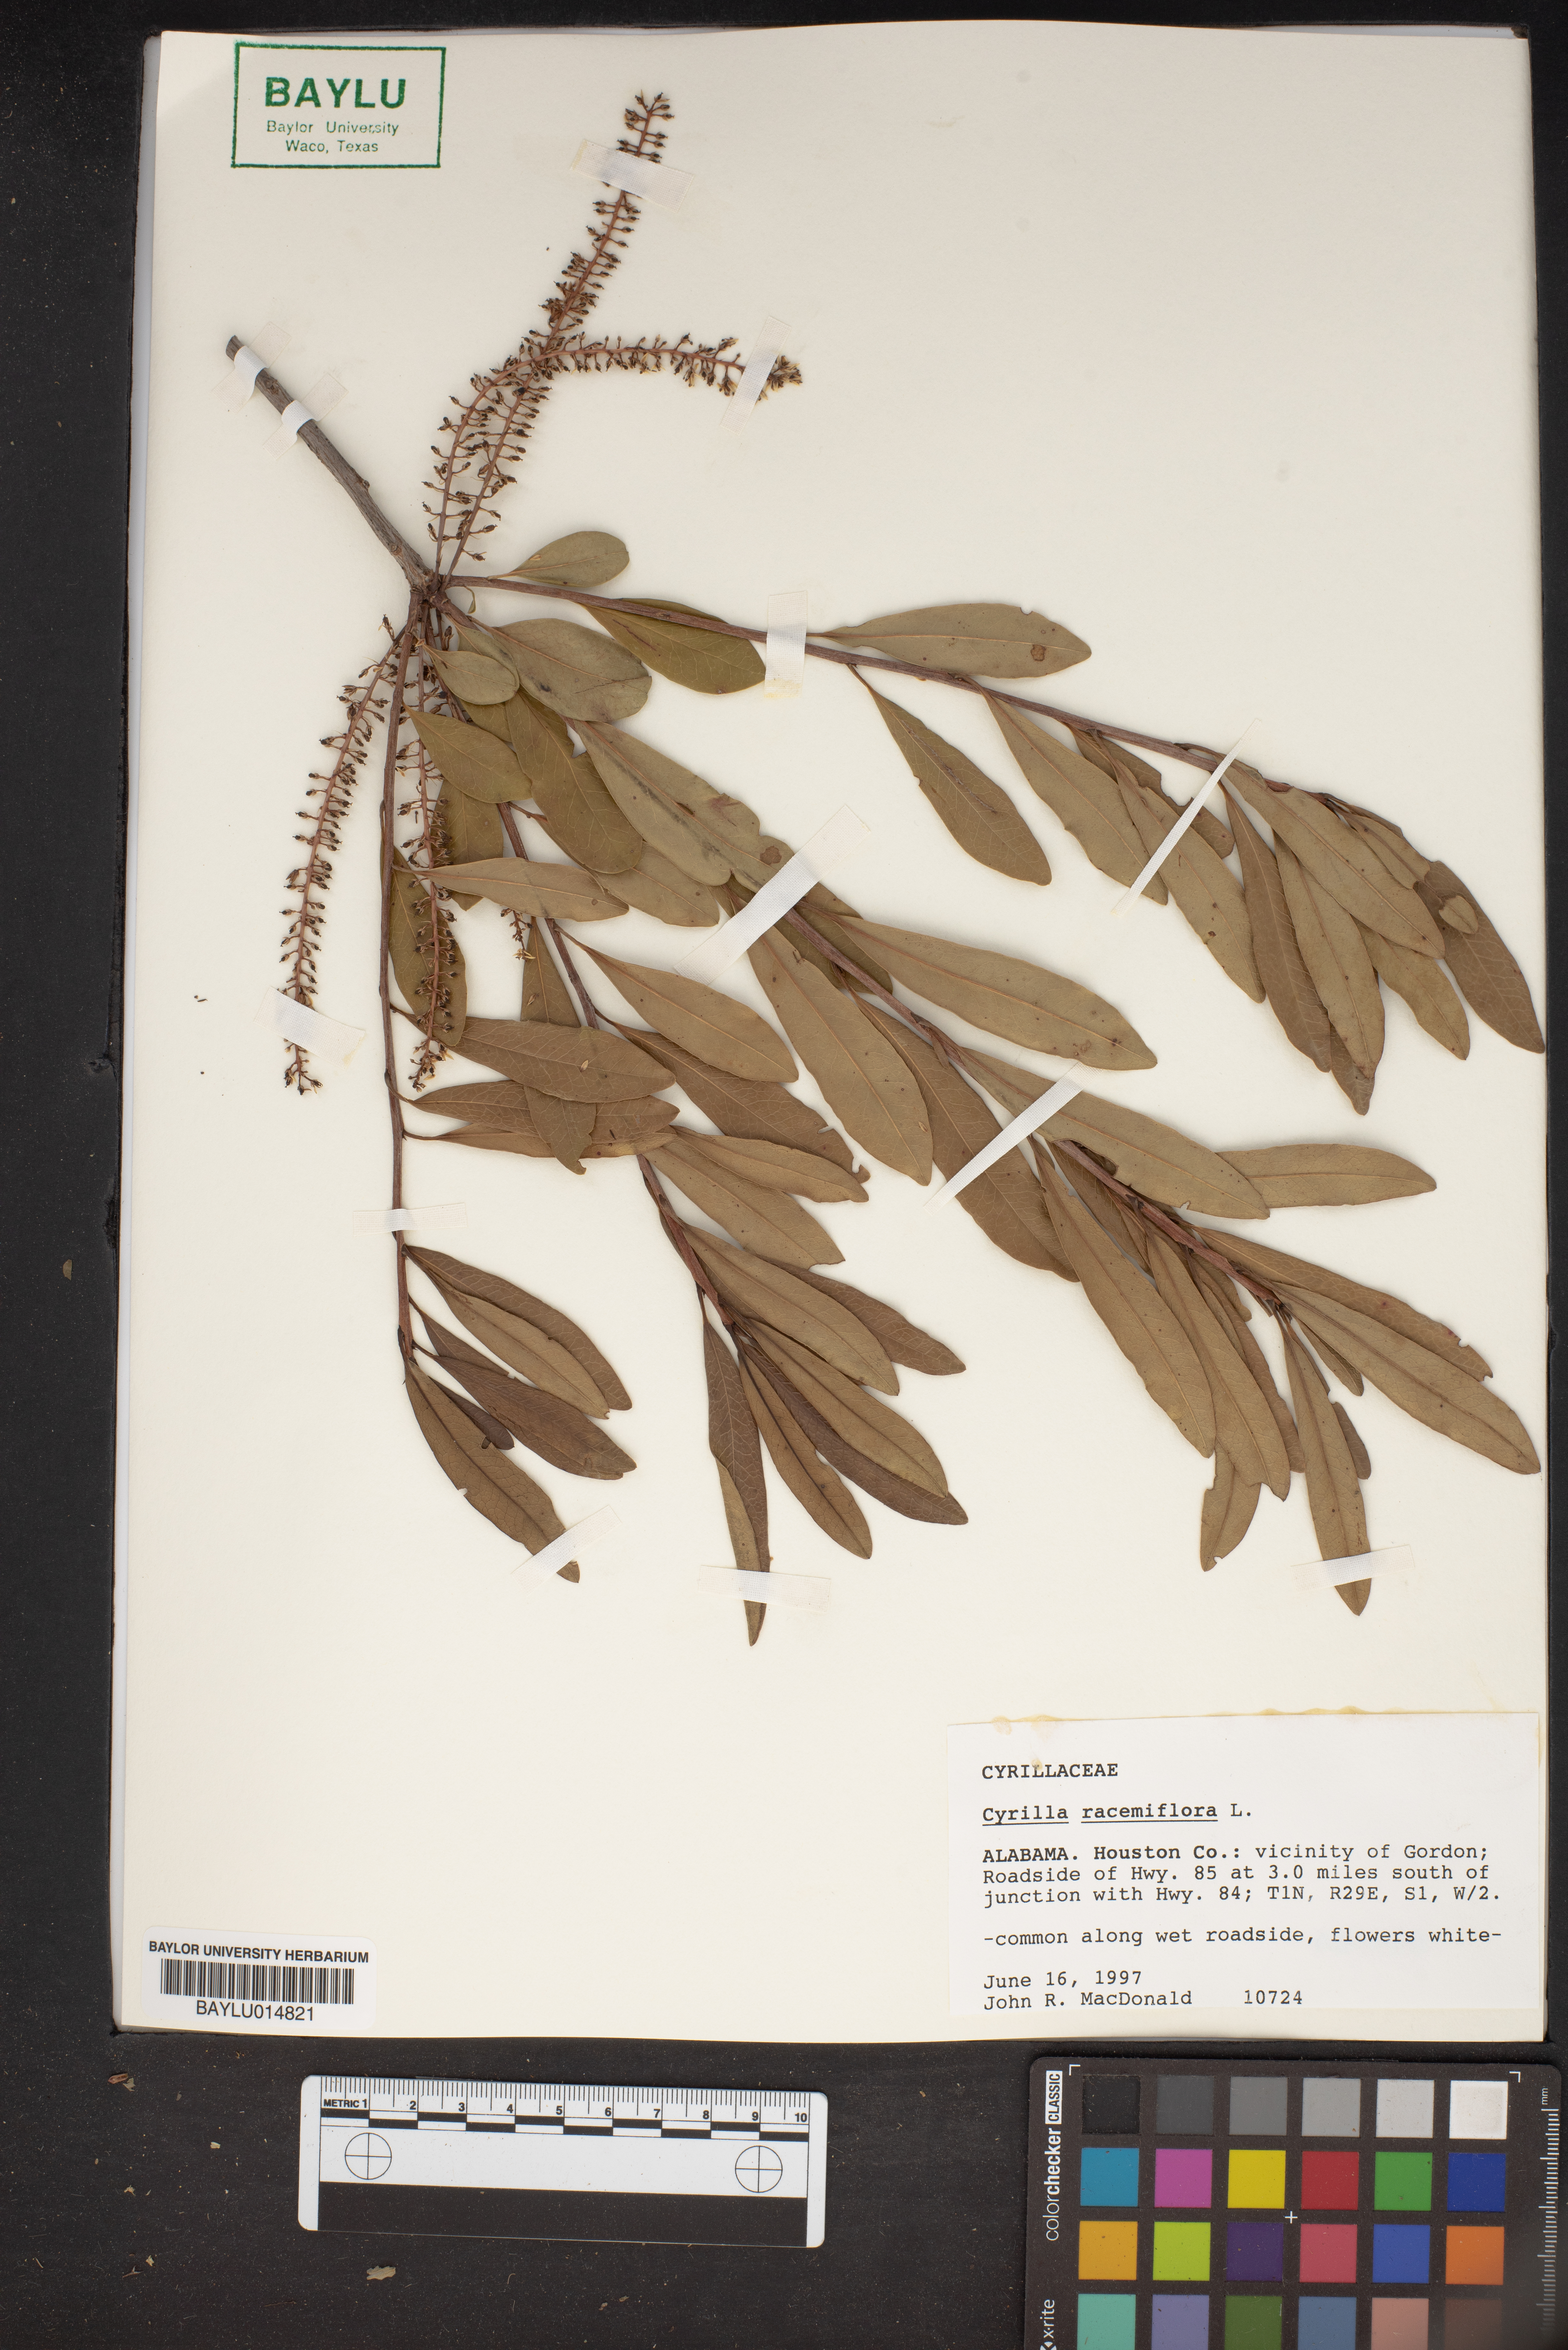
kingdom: Plantae
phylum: Tracheophyta
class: Magnoliopsida
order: Ericales
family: Cyrillaceae
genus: Cyrilla
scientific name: Cyrilla racemiflora
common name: Black titi
